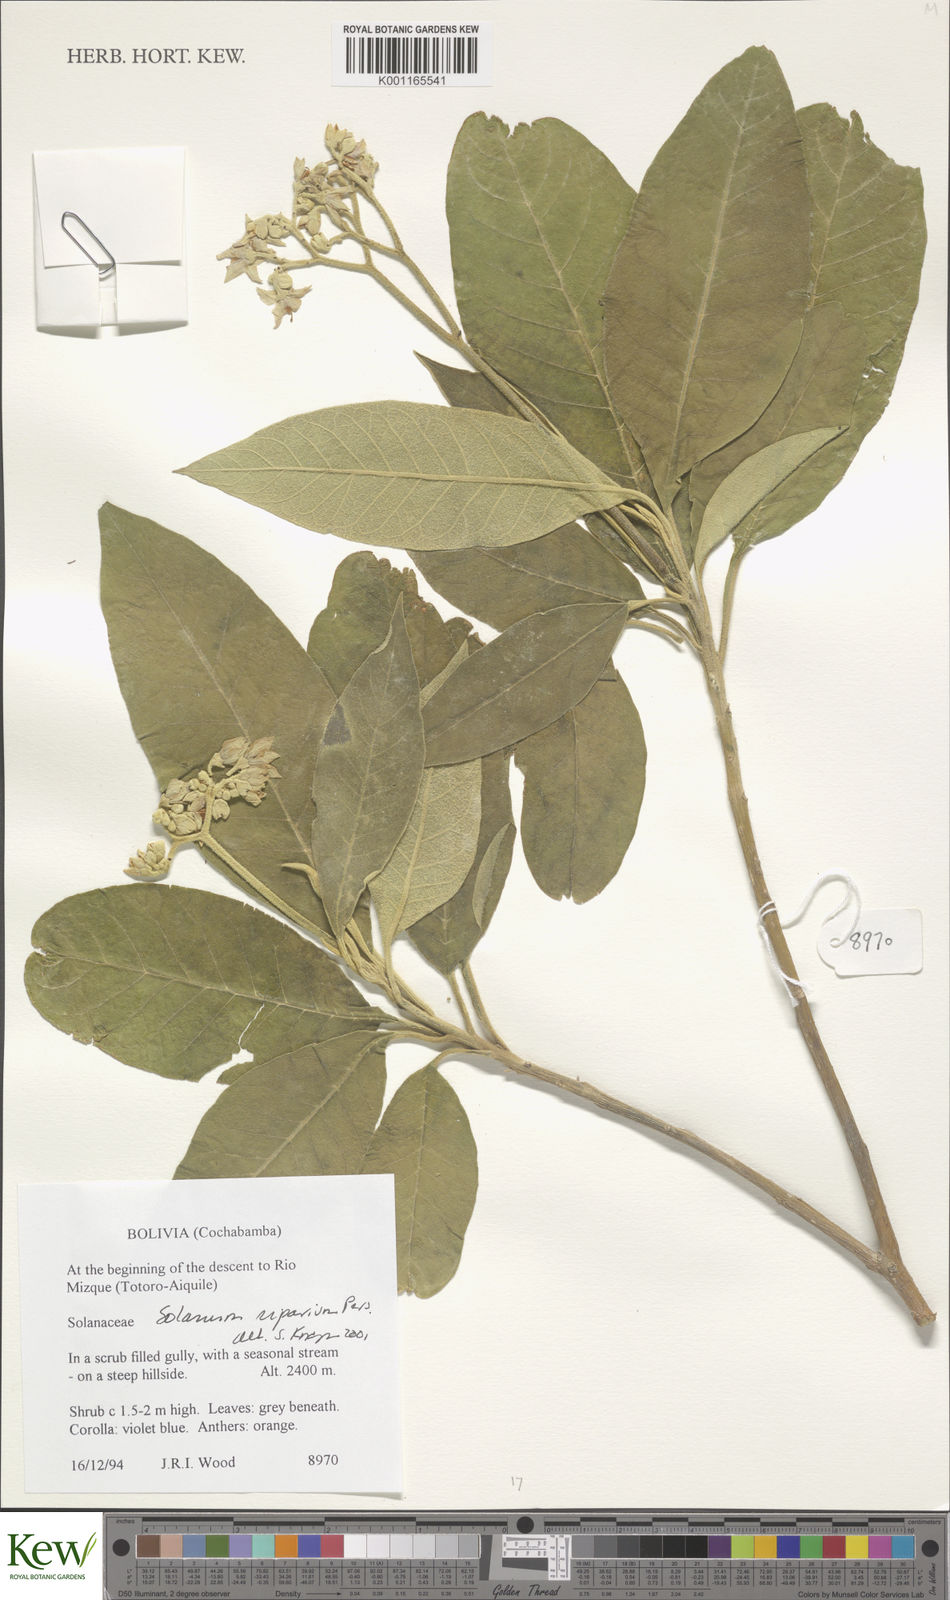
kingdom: Plantae
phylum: Tracheophyta
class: Magnoliopsida
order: Solanales
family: Solanaceae
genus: Solanum
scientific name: Solanum riparium
